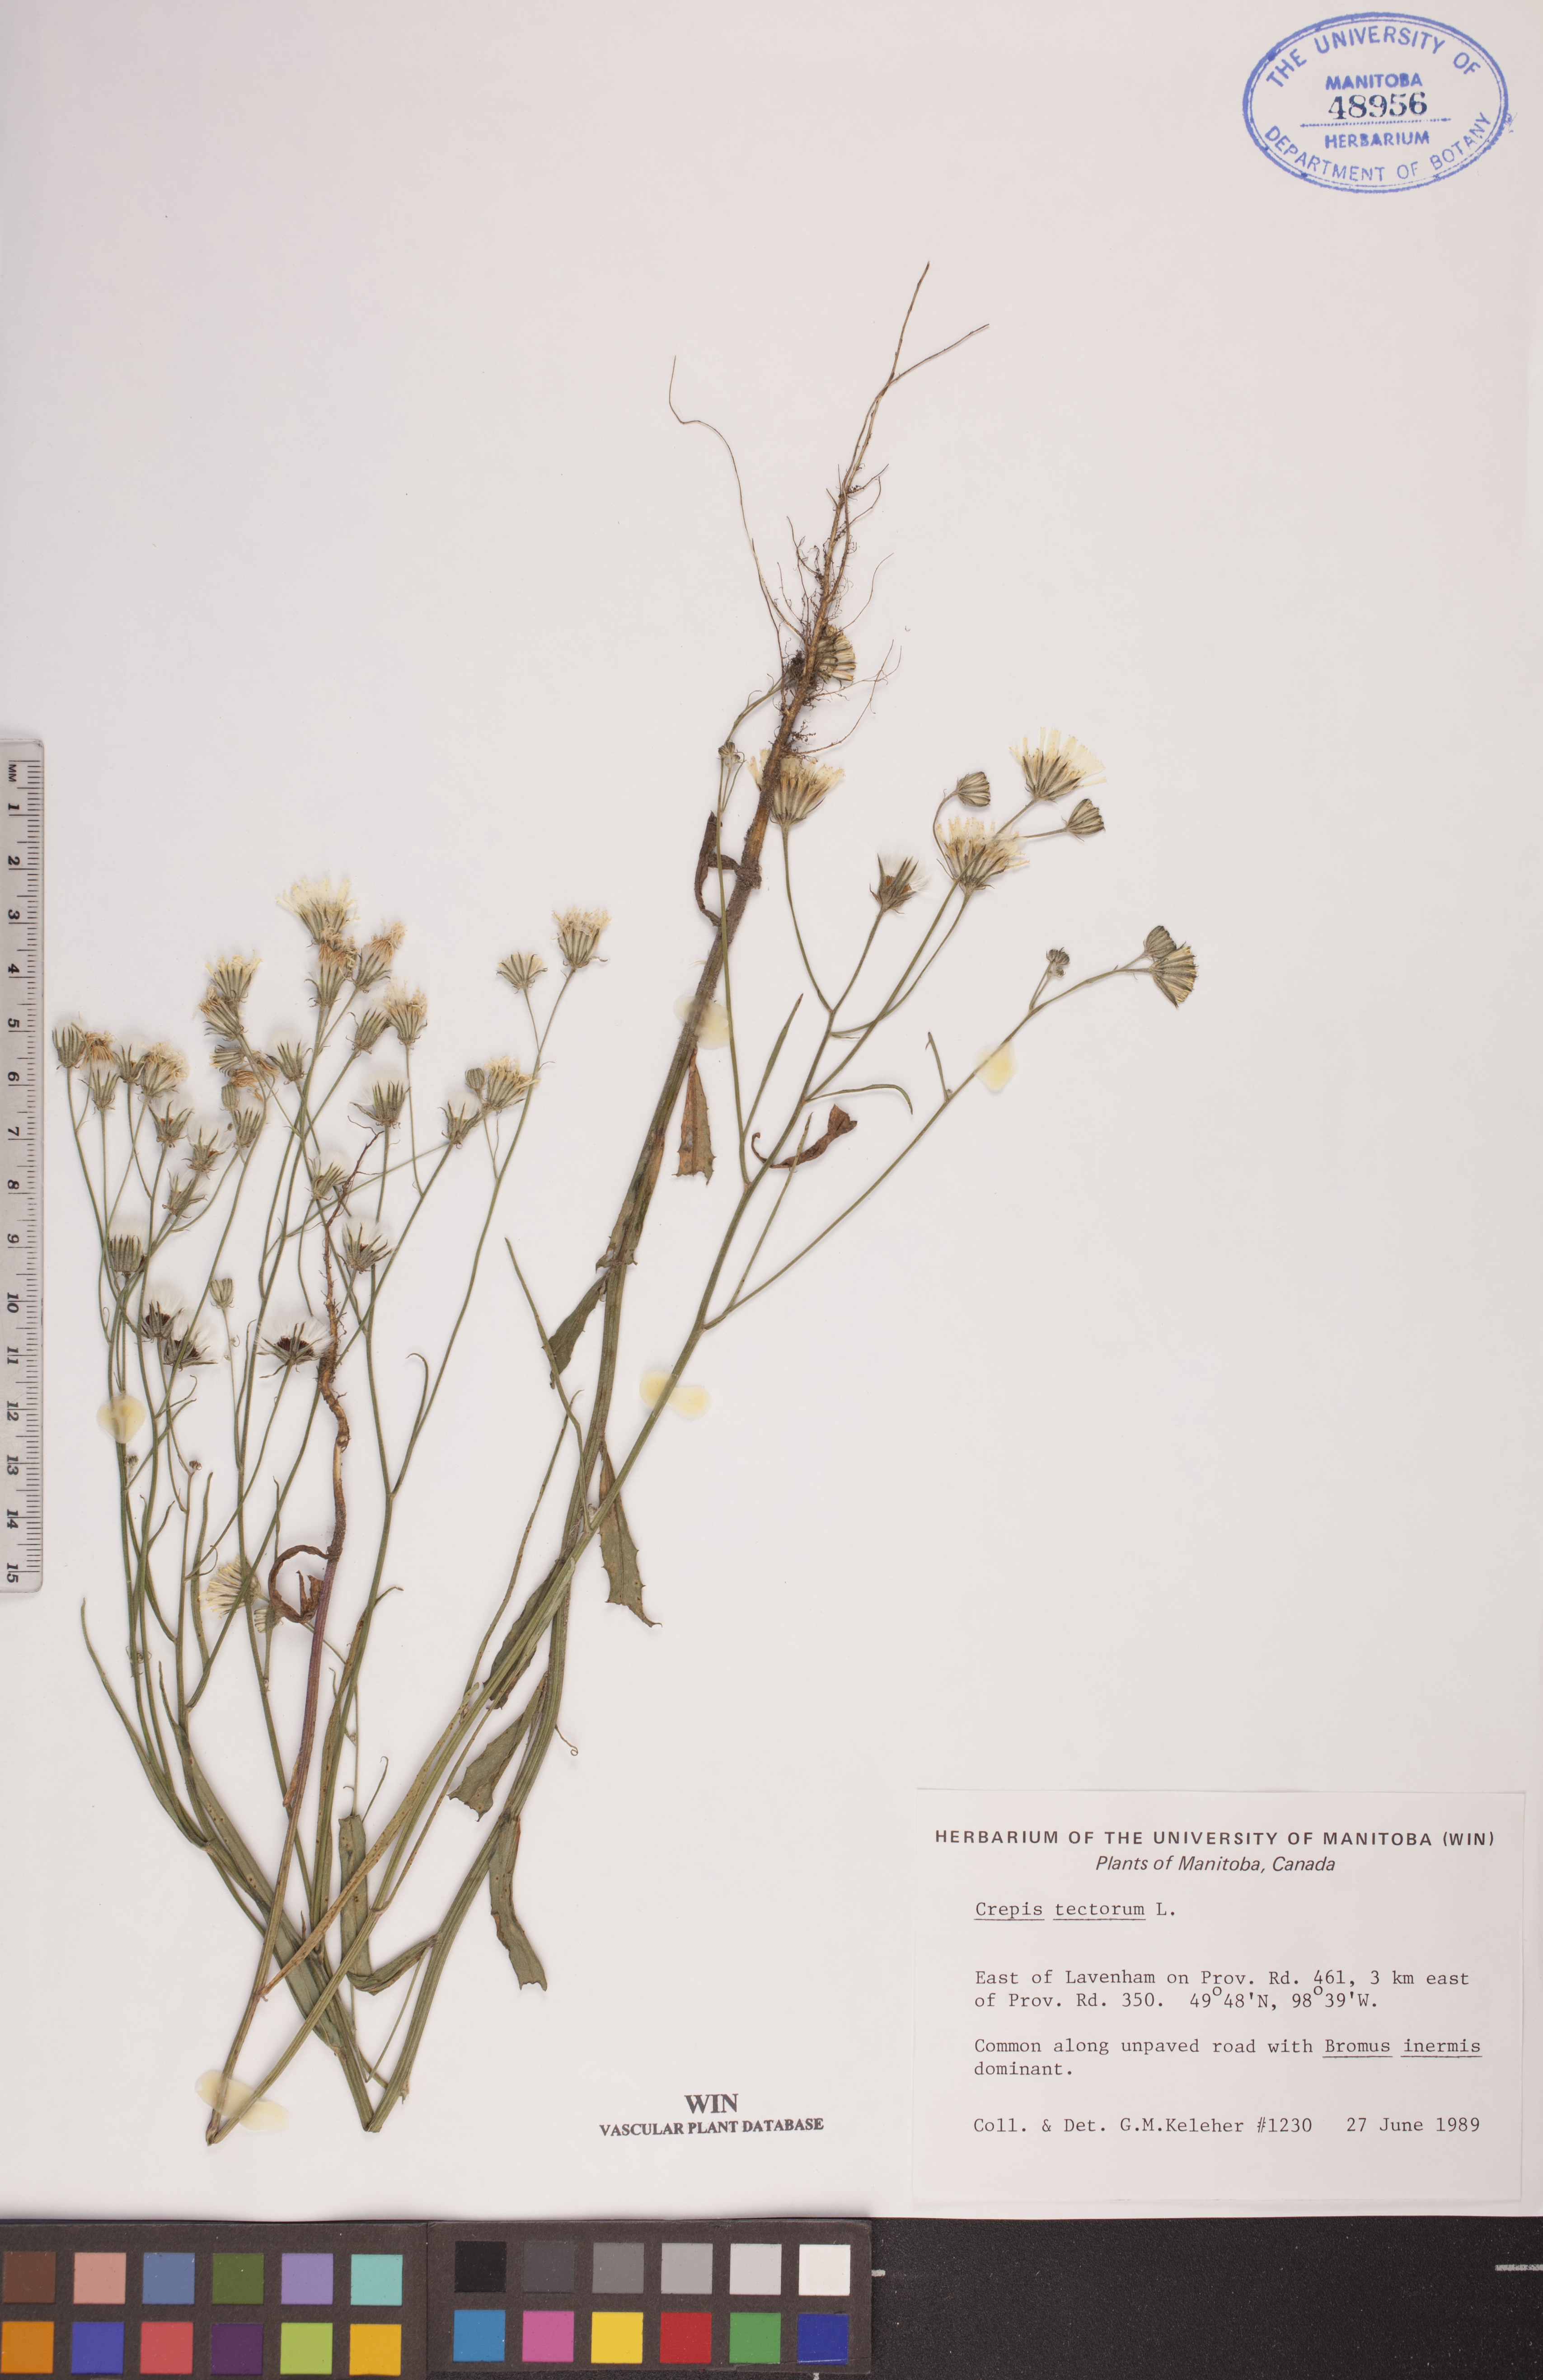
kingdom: Plantae
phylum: Tracheophyta
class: Magnoliopsida
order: Asterales
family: Asteraceae
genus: Crepis
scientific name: Crepis tectorum
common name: Narrow-leaved hawk's-beard
